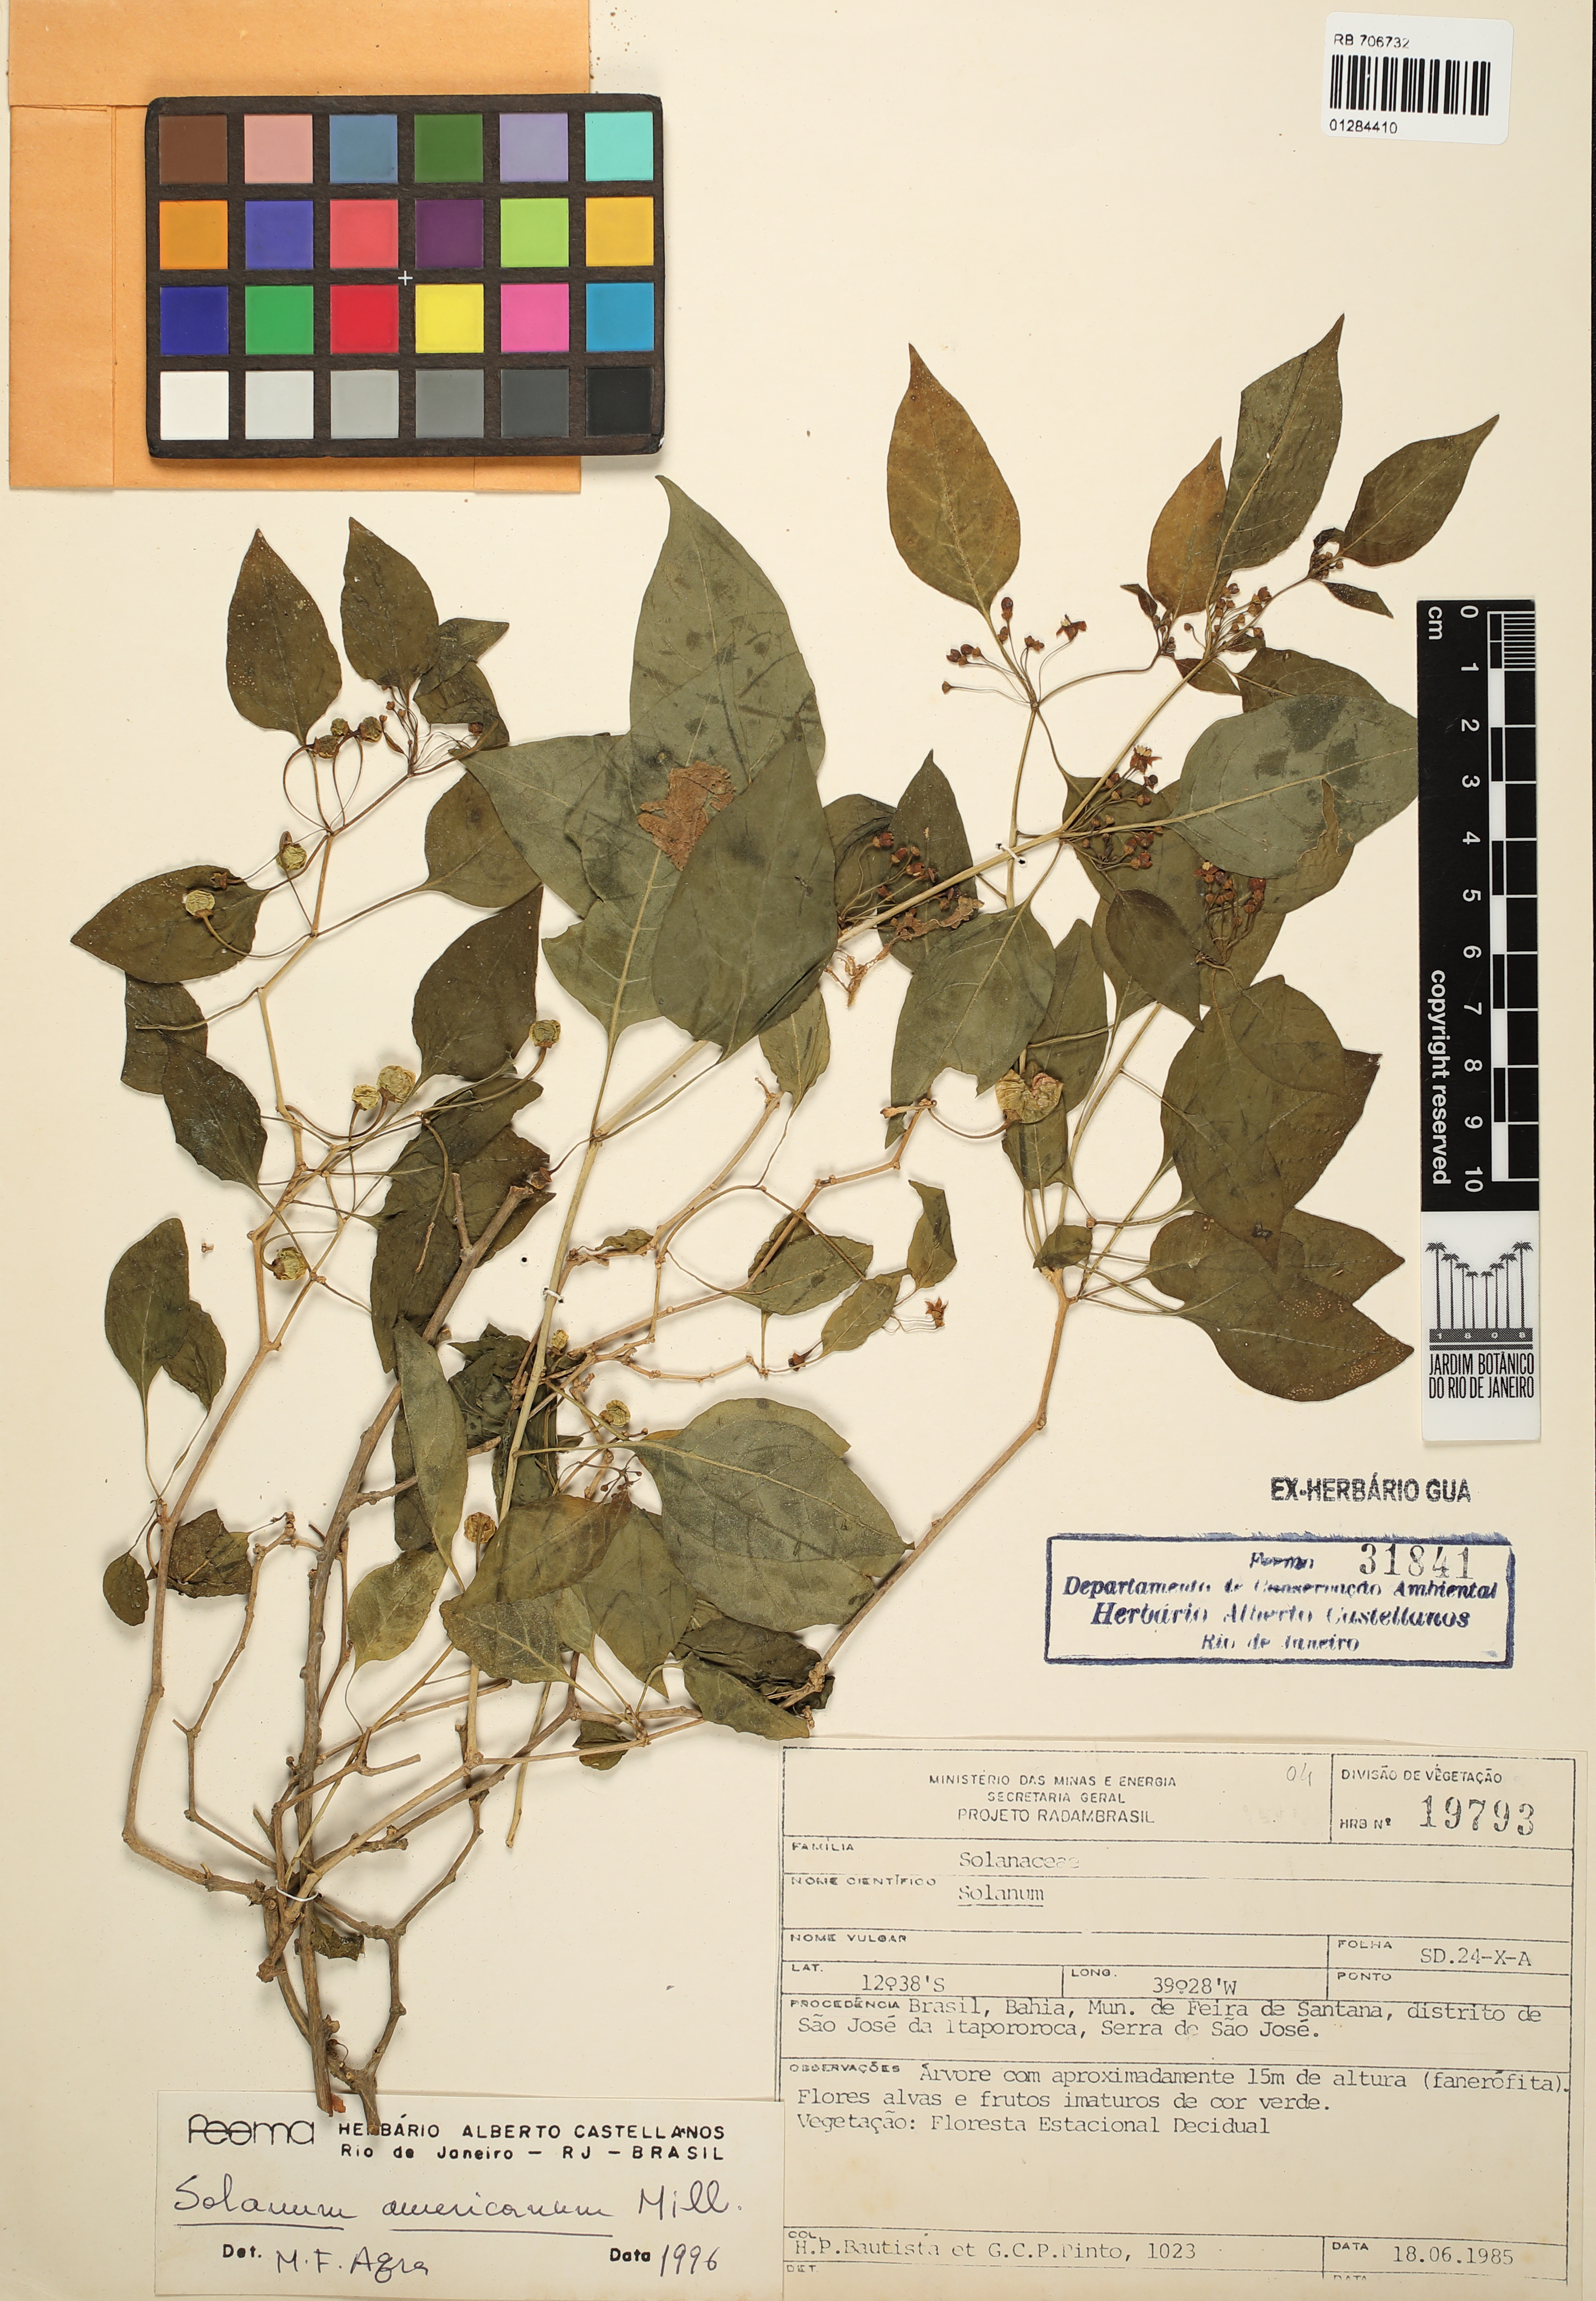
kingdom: Plantae
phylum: Tracheophyta
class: Magnoliopsida
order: Solanales
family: Solanaceae
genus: Solanum
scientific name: Solanum americanum
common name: American black nightshade
